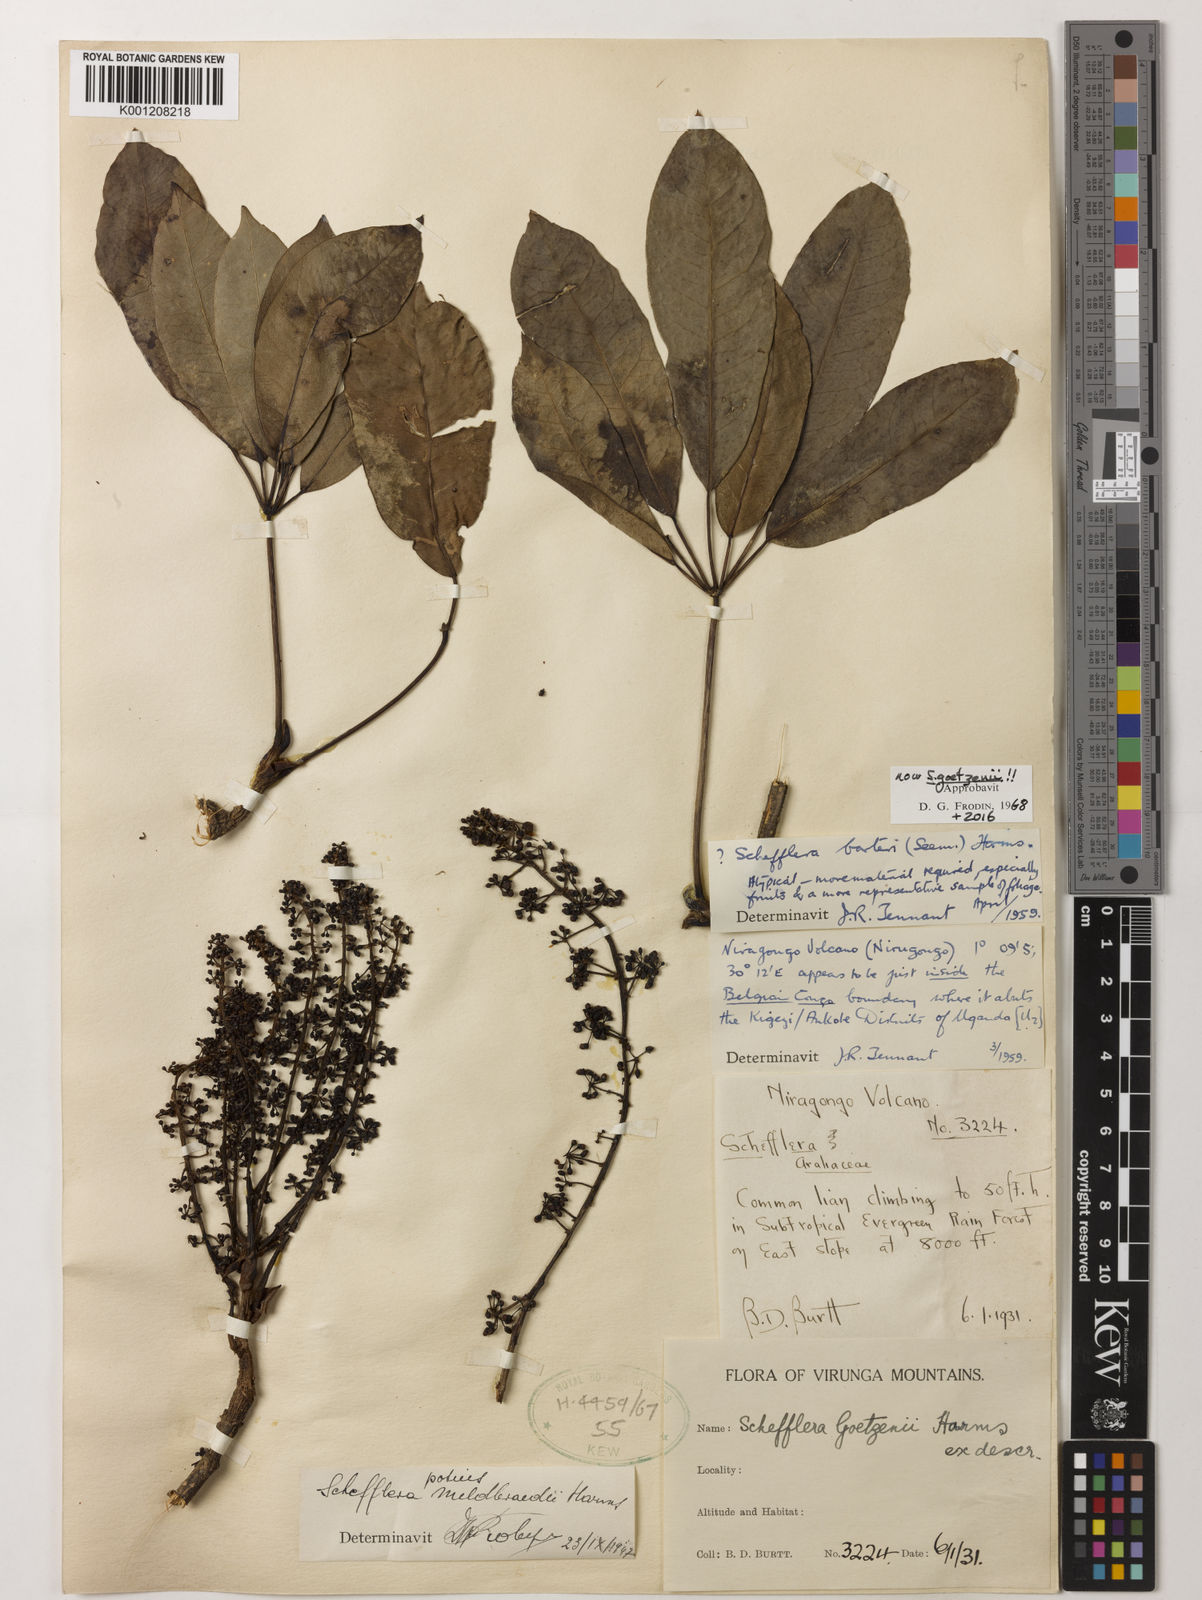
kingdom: Plantae
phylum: Tracheophyta
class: Magnoliopsida
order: Apiales
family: Araliaceae
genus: Astropanax
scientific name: Astropanax goetzenii
